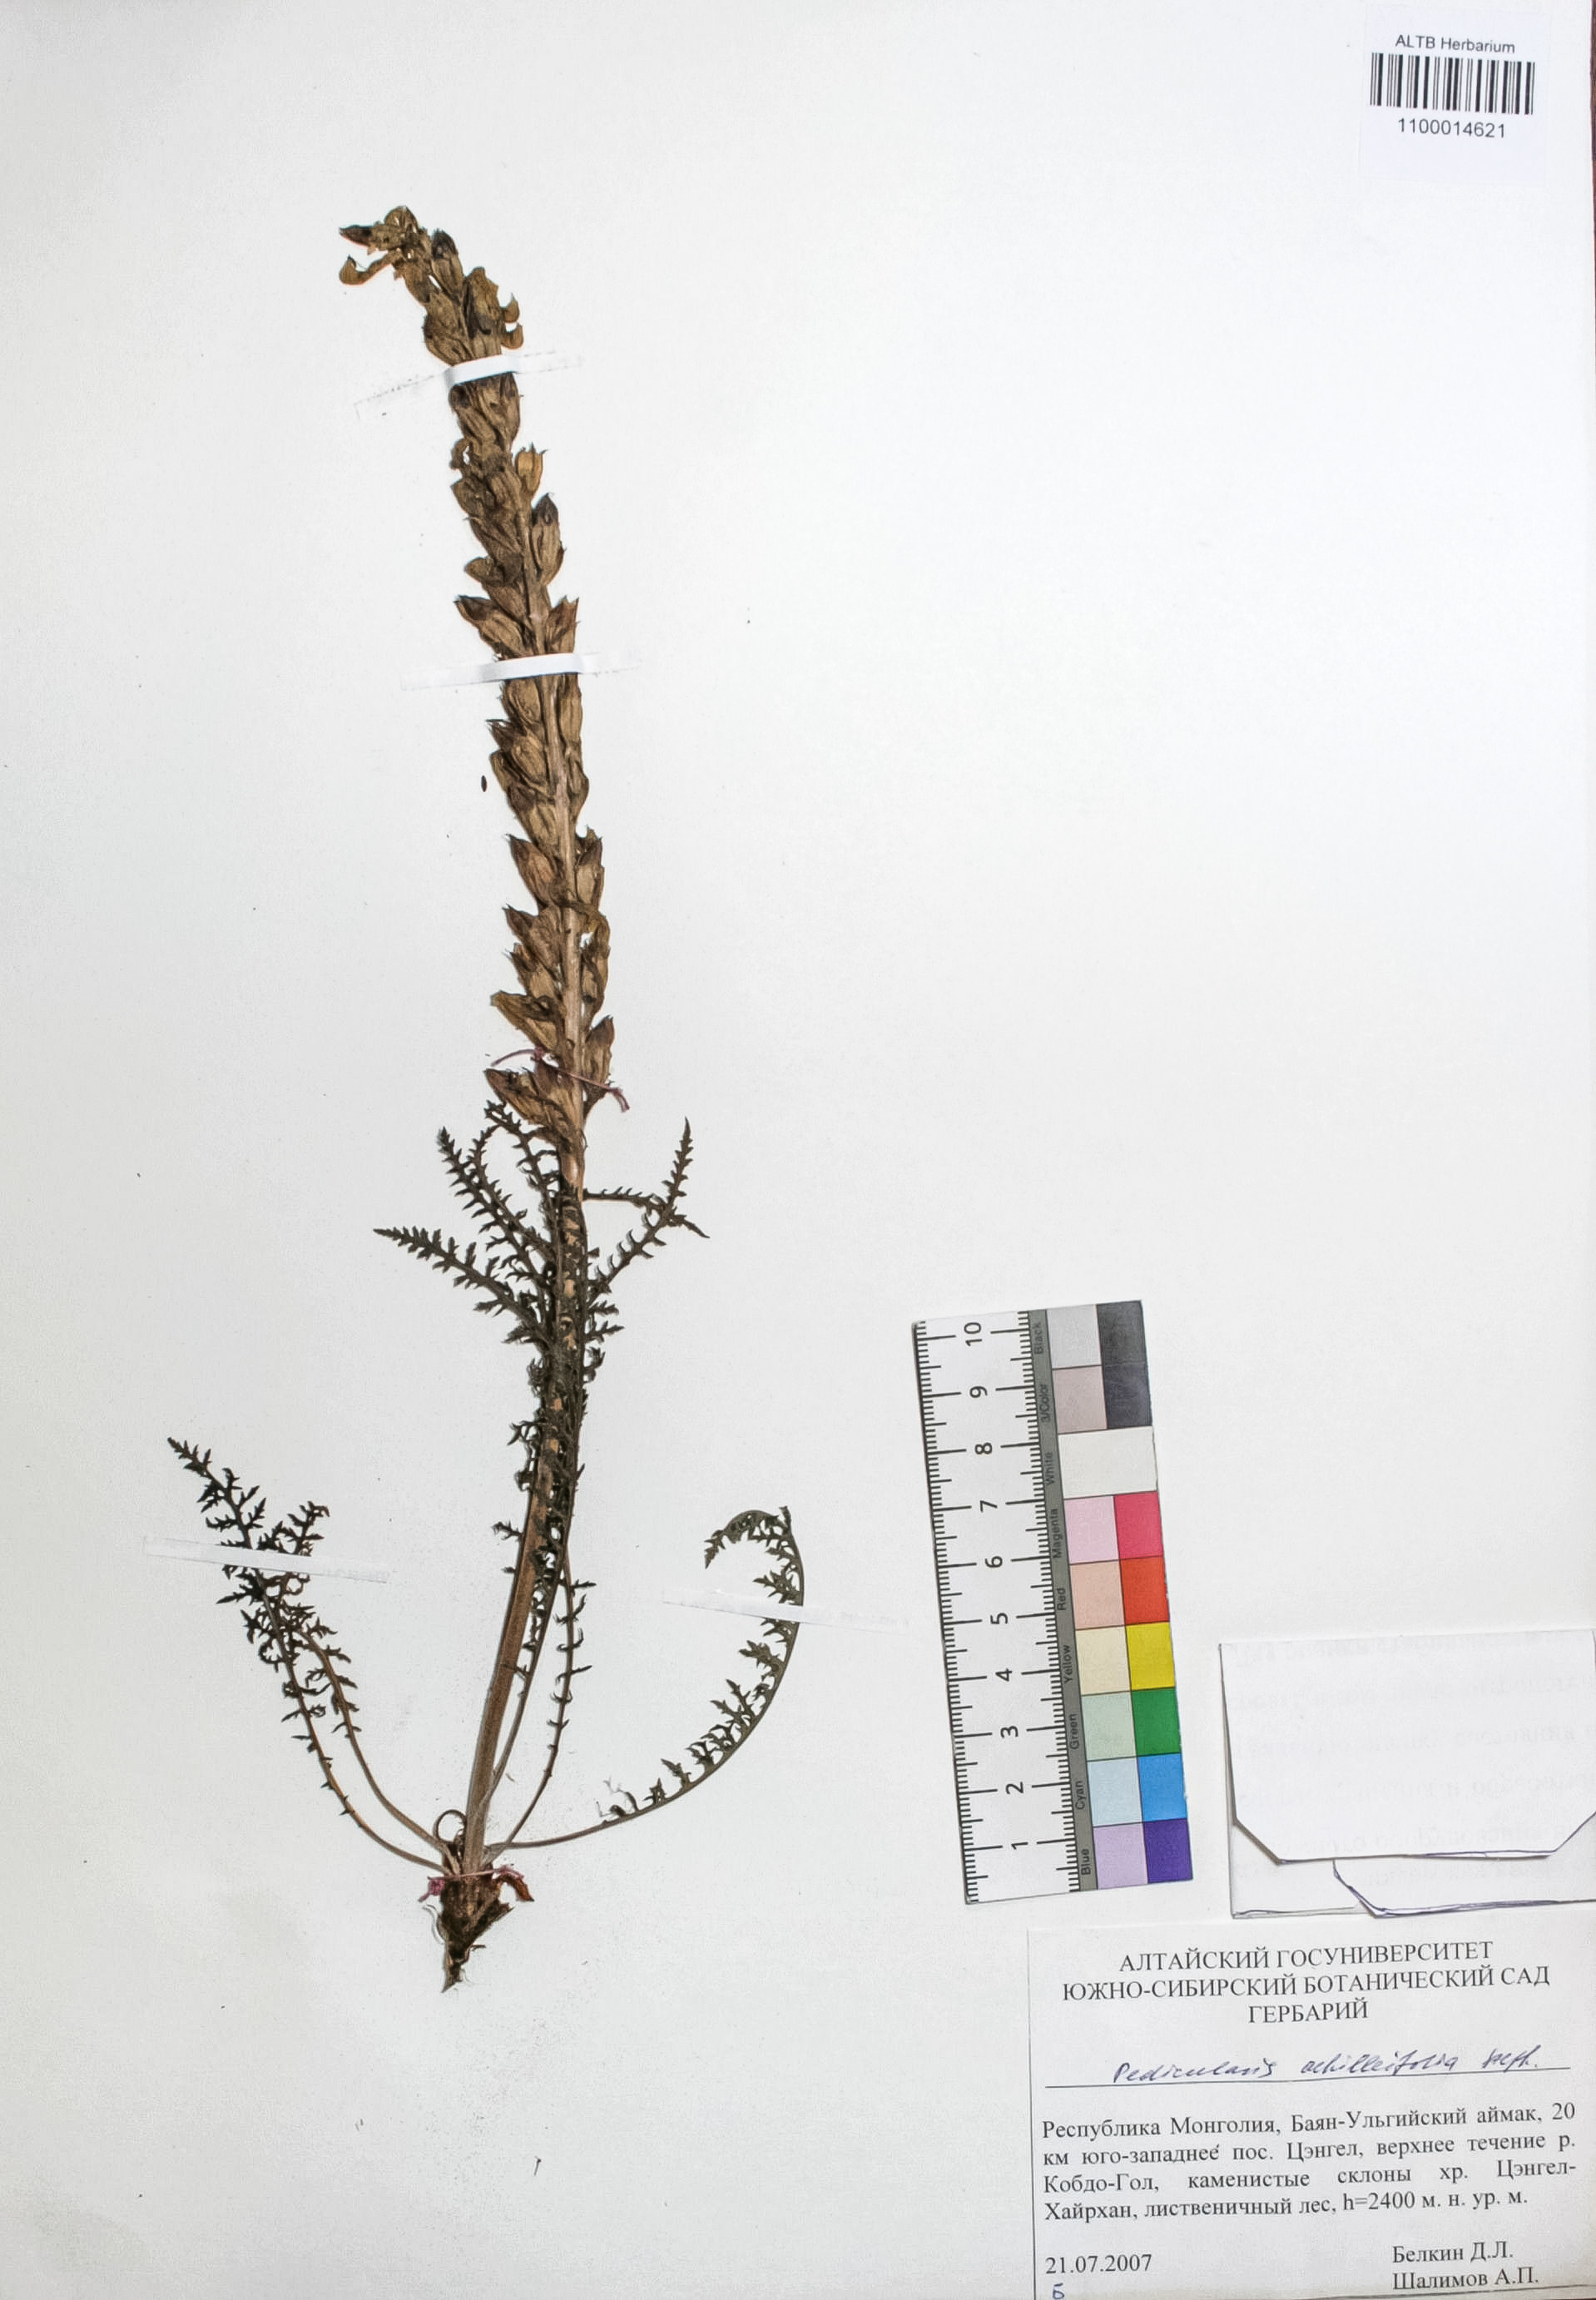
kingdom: Plantae
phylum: Tracheophyta
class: Magnoliopsida
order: Lamiales
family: Orobanchaceae
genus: Pedicularis
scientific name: Pedicularis achilleifolia
